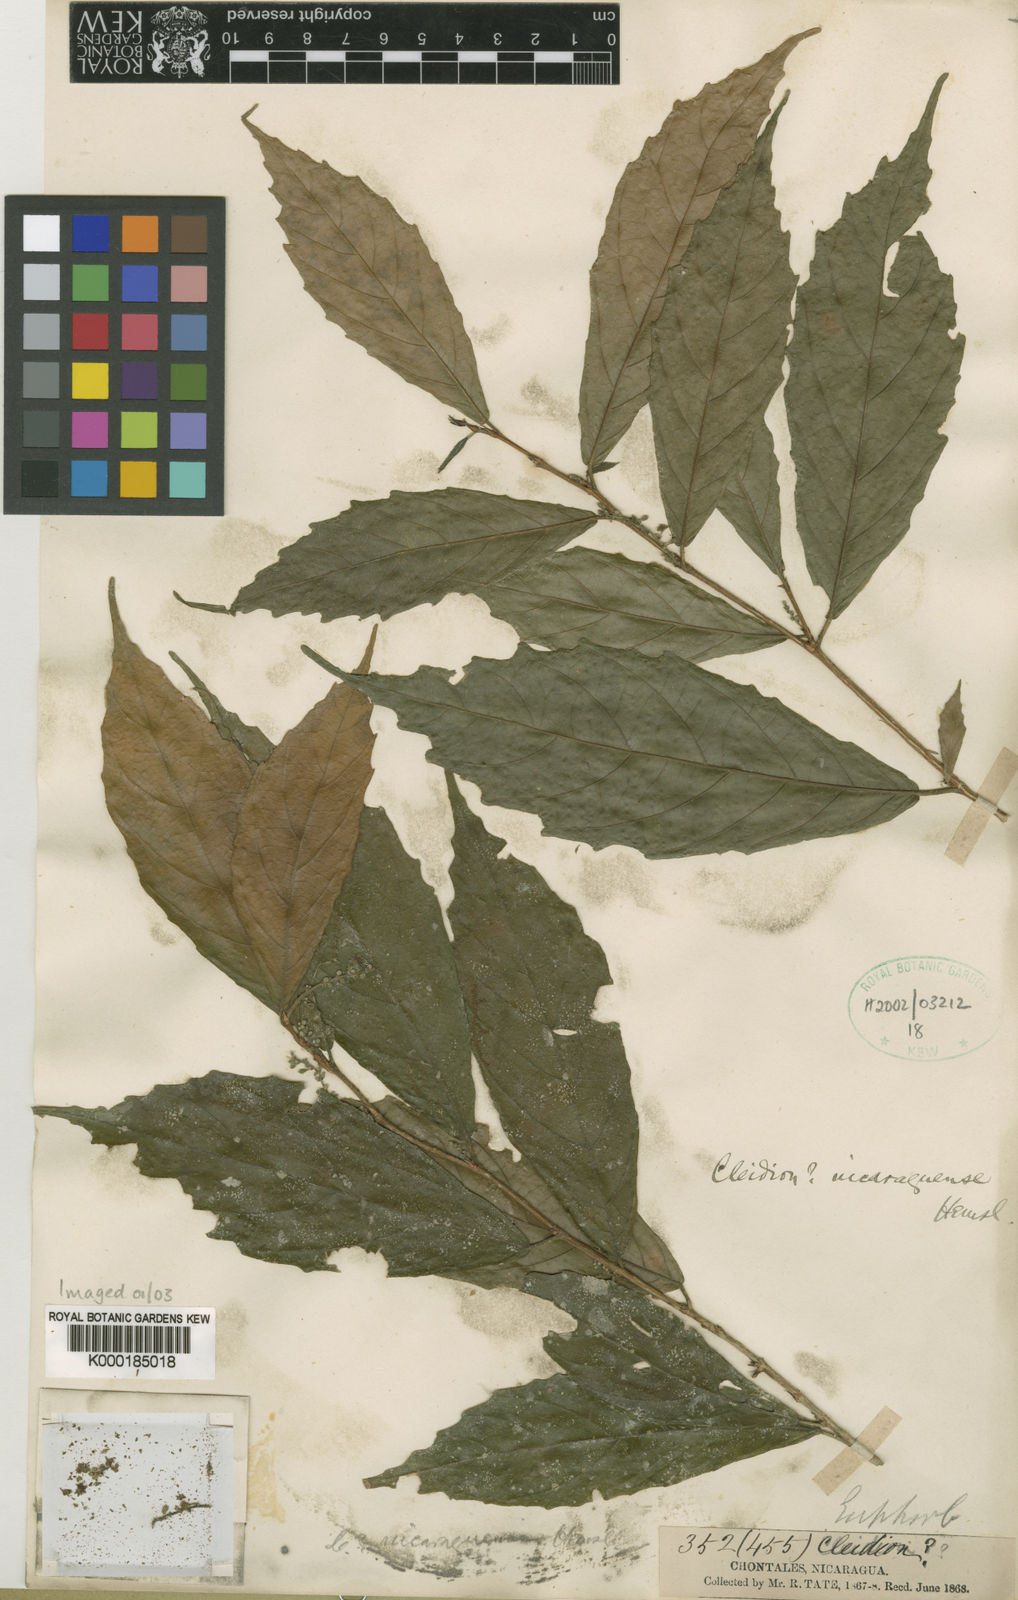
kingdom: Plantae
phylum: Tracheophyta
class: Magnoliopsida
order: Malpighiales
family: Euphorbiaceae
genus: Gitara
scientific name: Gitara nicaraguensis
